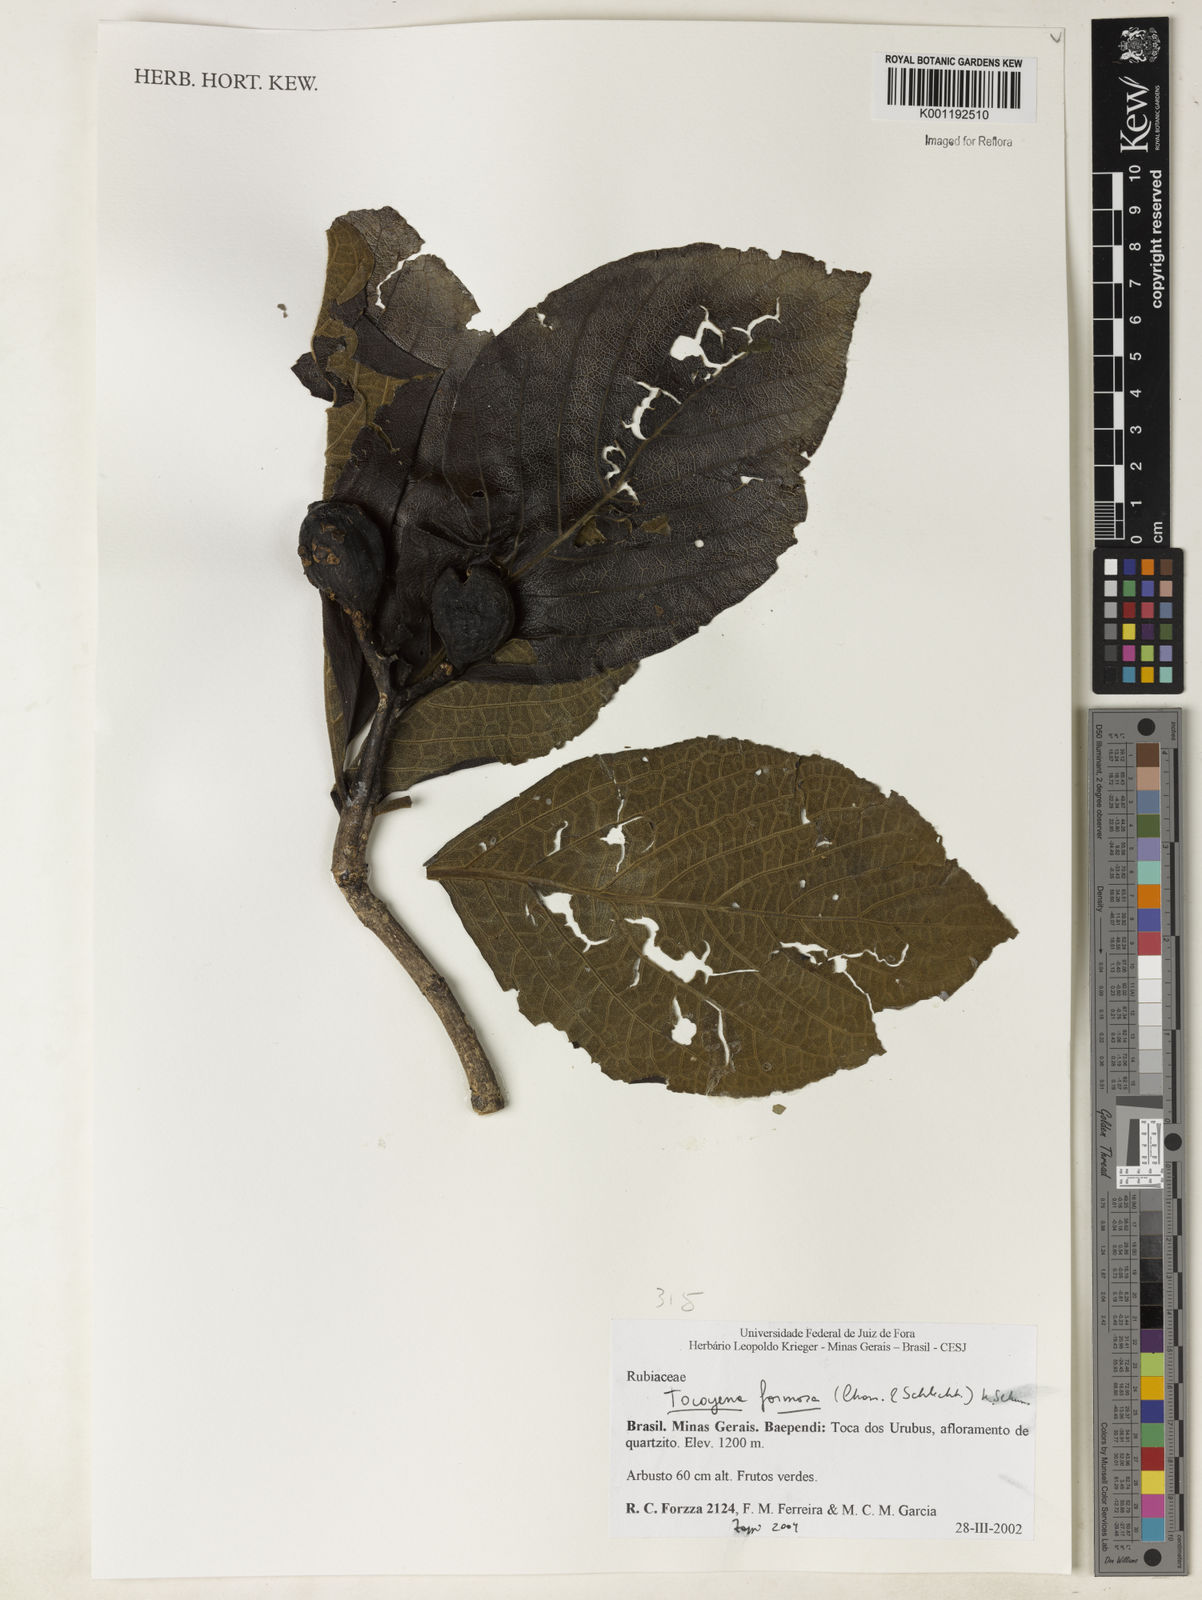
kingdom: Plantae
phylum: Tracheophyta
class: Magnoliopsida
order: Gentianales
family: Rubiaceae
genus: Tocoyena
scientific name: Tocoyena formosa
